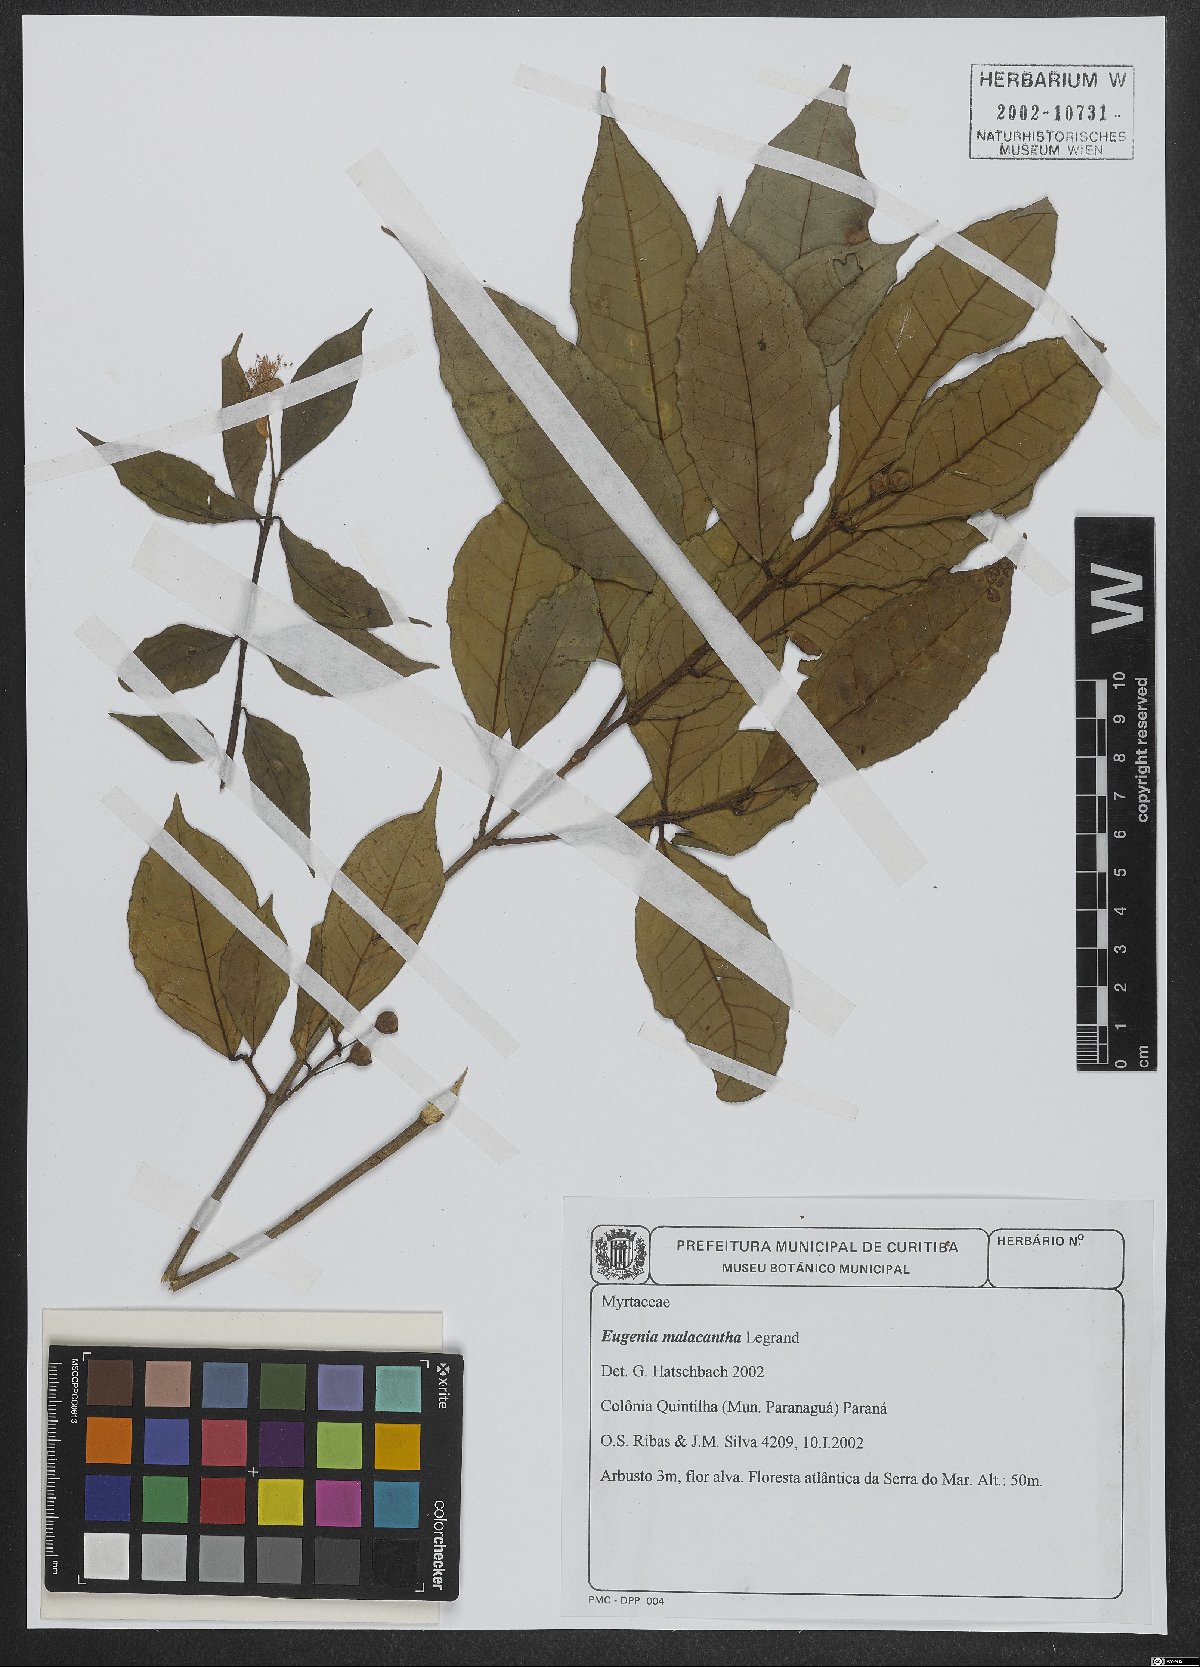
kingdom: Plantae
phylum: Tracheophyta
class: Magnoliopsida
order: Myrtales
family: Myrtaceae
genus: Eugenia
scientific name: Eugenia malacantha
